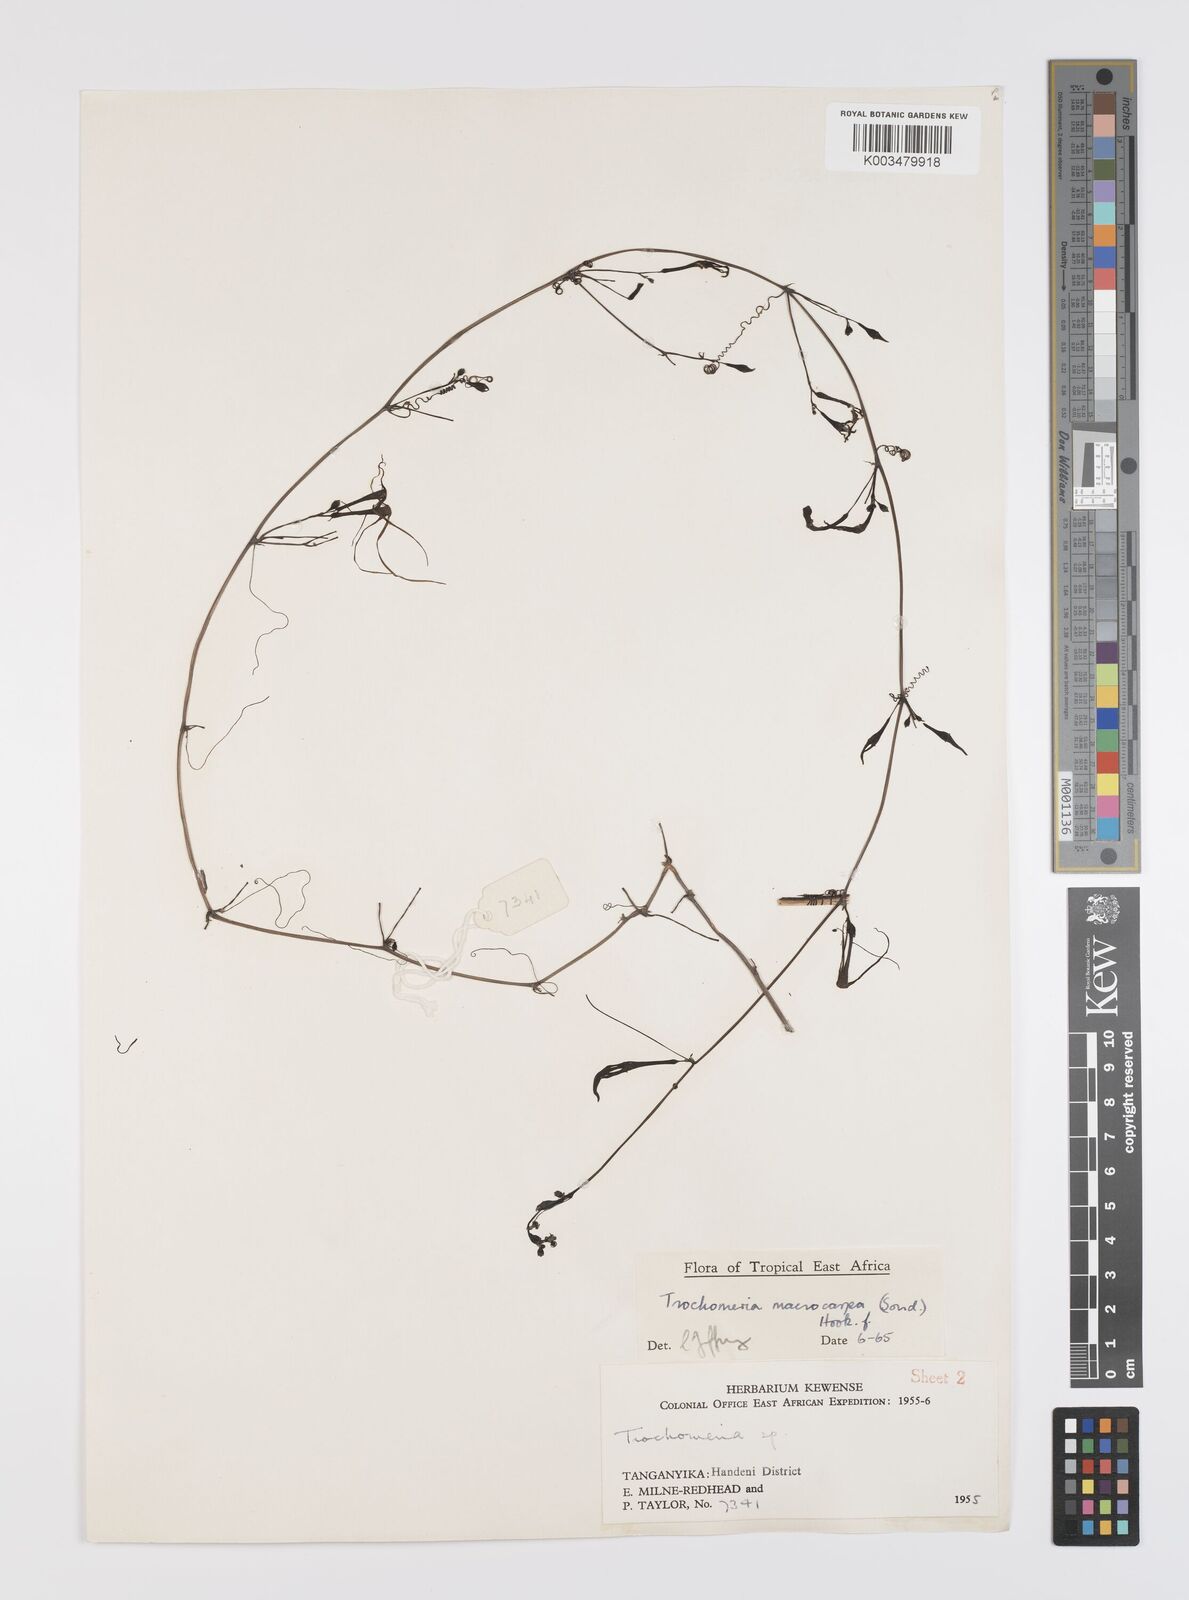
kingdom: Plantae
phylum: Tracheophyta
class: Magnoliopsida
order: Cucurbitales
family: Cucurbitaceae
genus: Trochomeria
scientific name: Trochomeria macrocarpa
